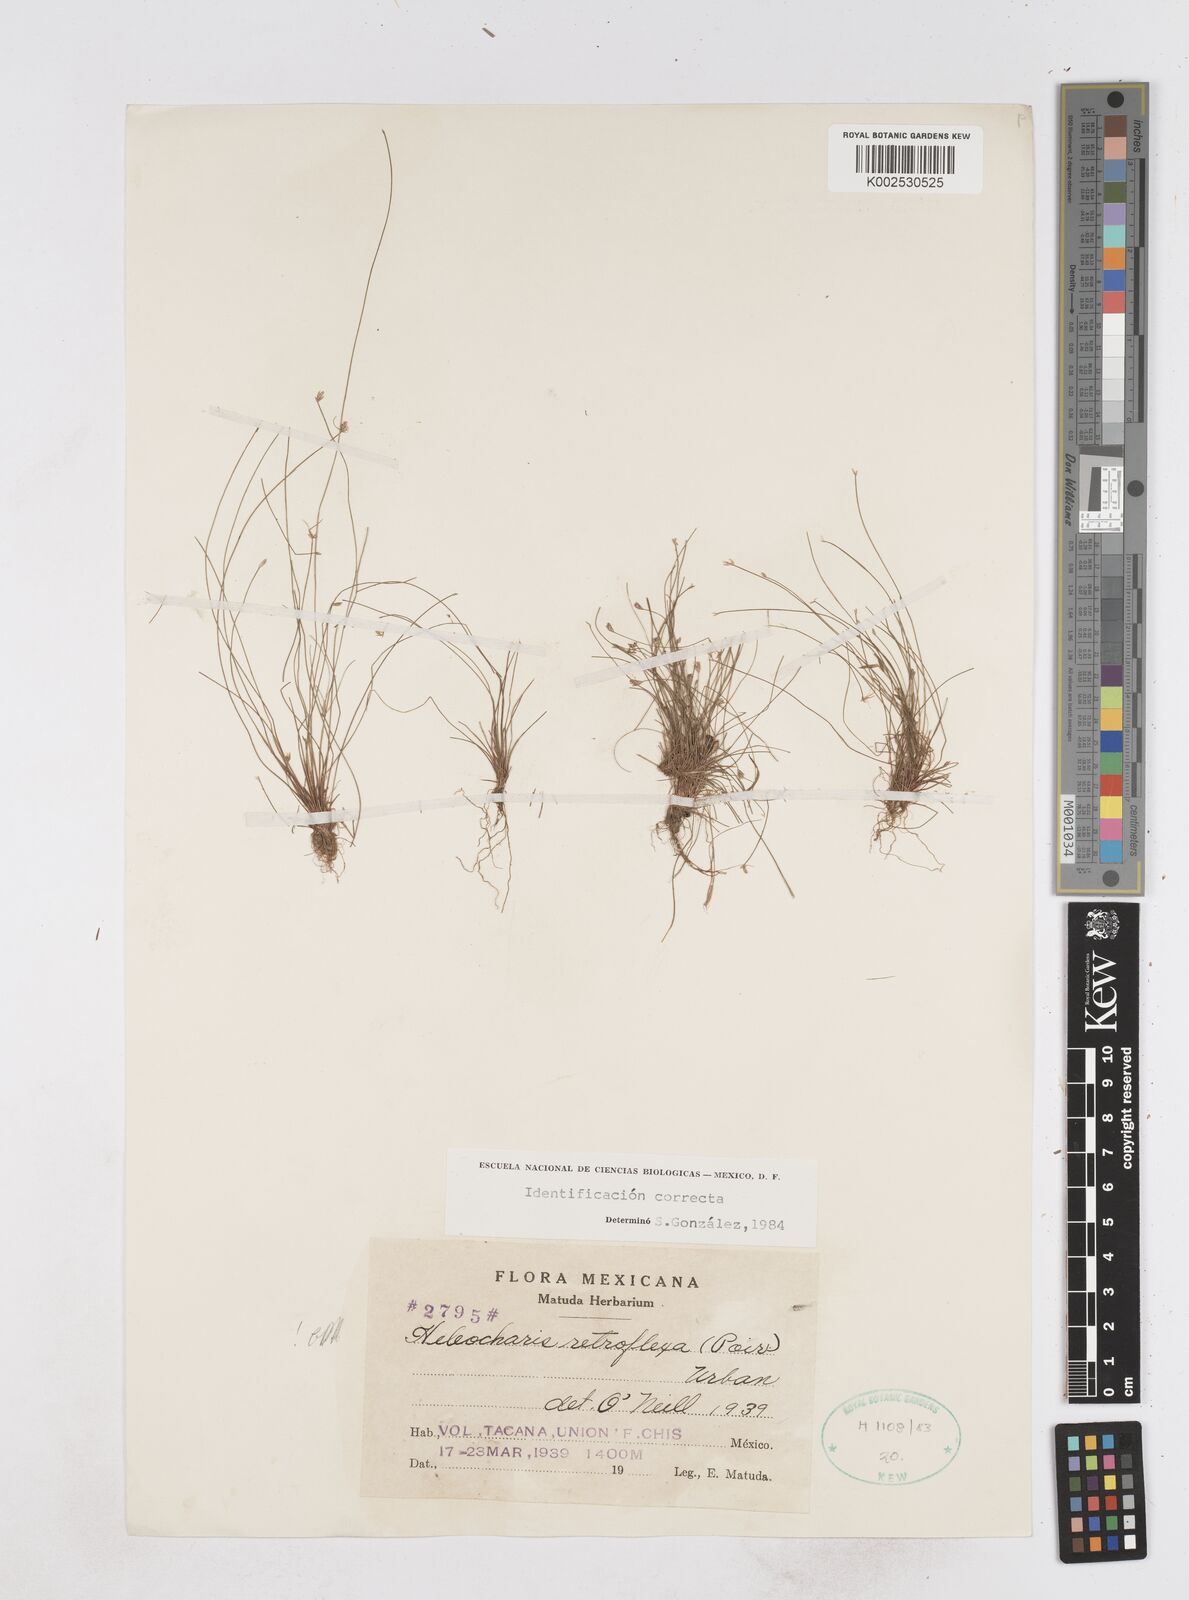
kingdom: Plantae
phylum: Tracheophyta
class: Liliopsida
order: Poales
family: Cyperaceae
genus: Eleocharis
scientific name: Eleocharis retroflexa
